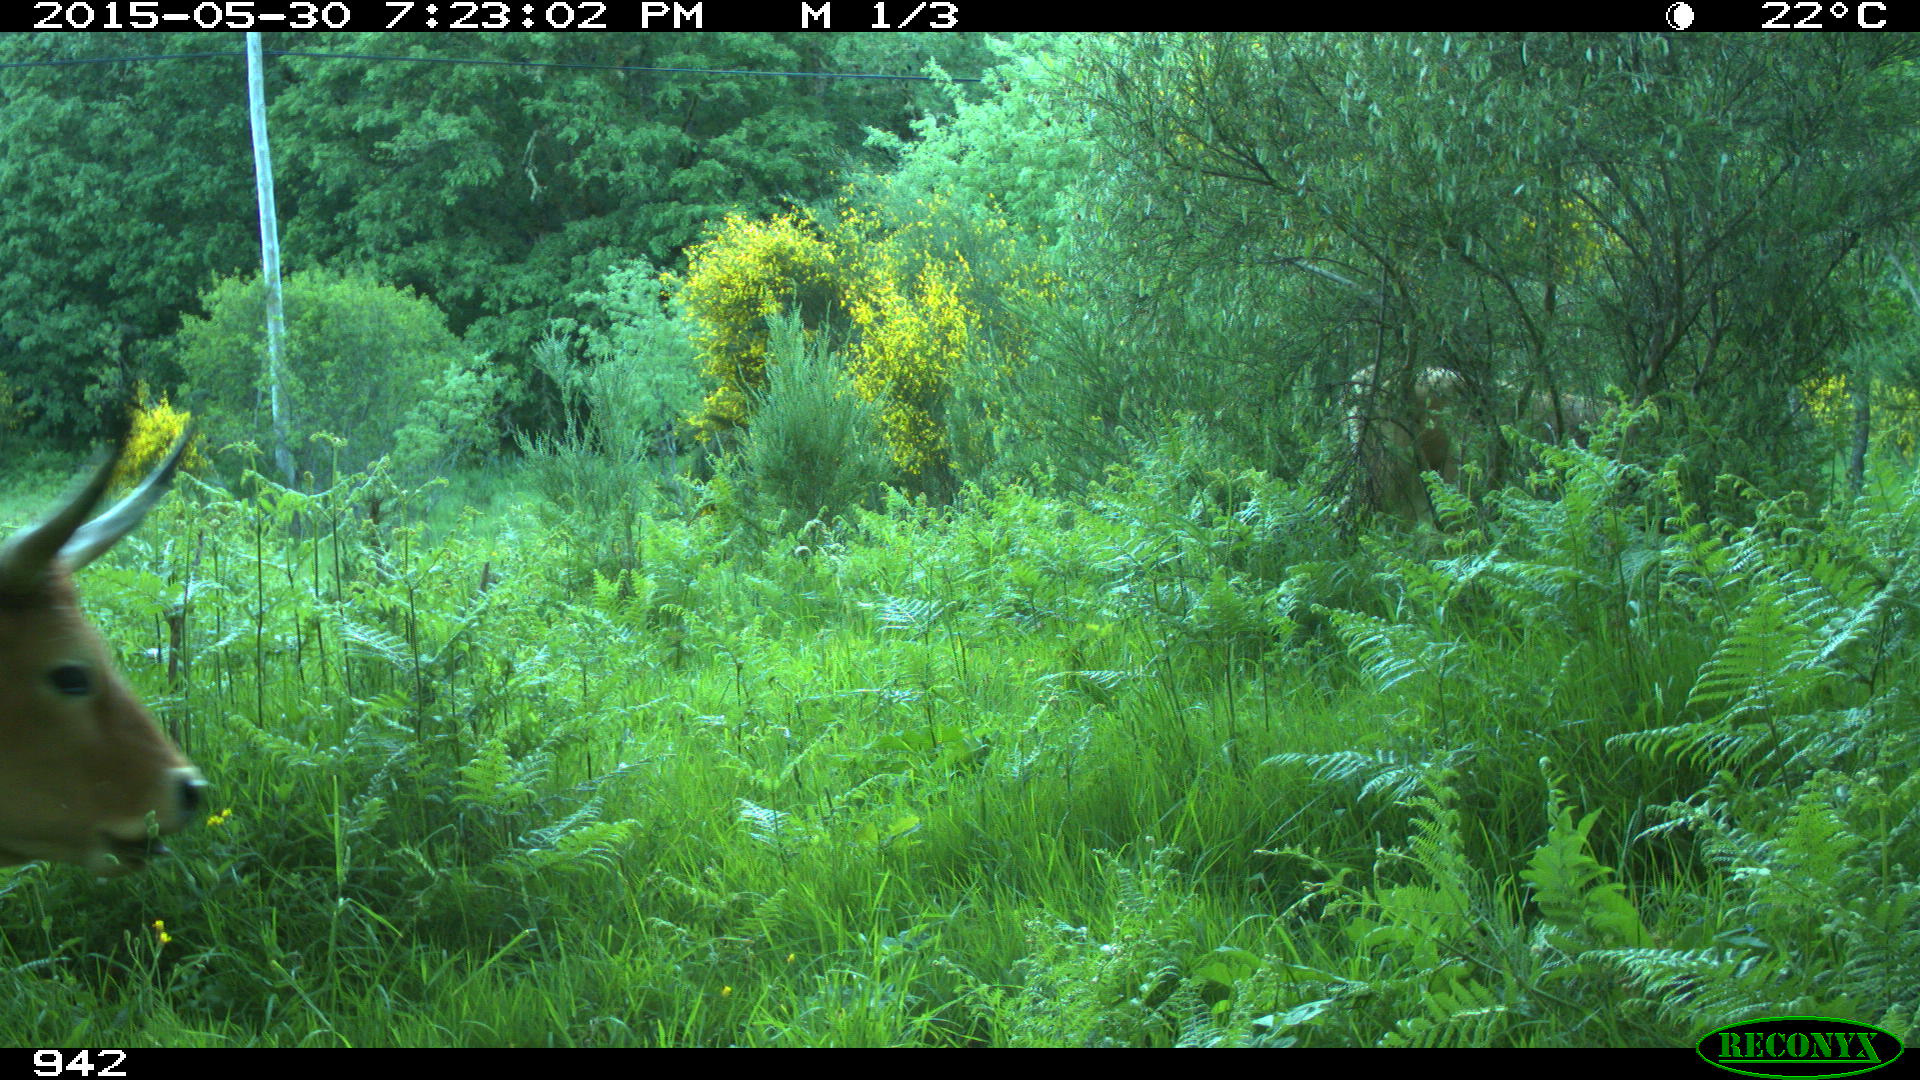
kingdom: Animalia
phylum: Chordata
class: Mammalia
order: Artiodactyla
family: Bovidae
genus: Bos
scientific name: Bos taurus
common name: Domesticated cattle
